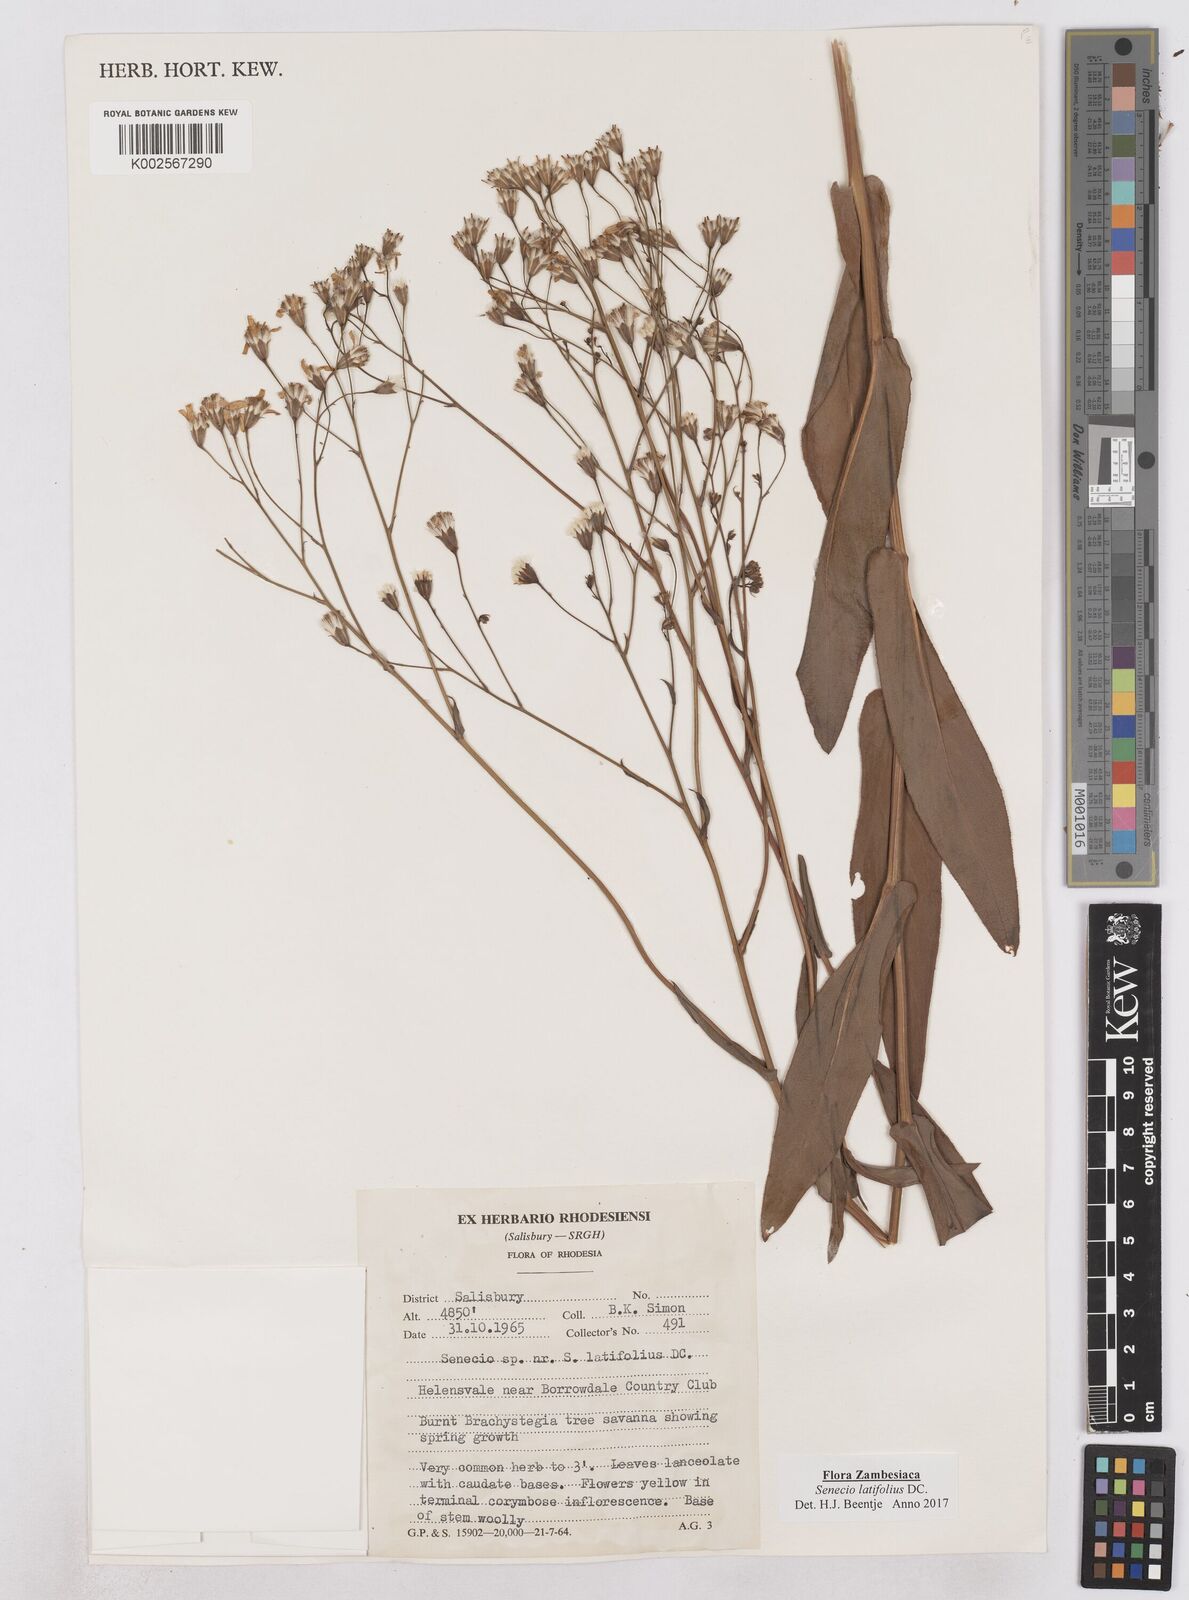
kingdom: Plantae
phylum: Tracheophyta
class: Magnoliopsida
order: Asterales
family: Asteraceae
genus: Senecio
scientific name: Senecio latifolius
